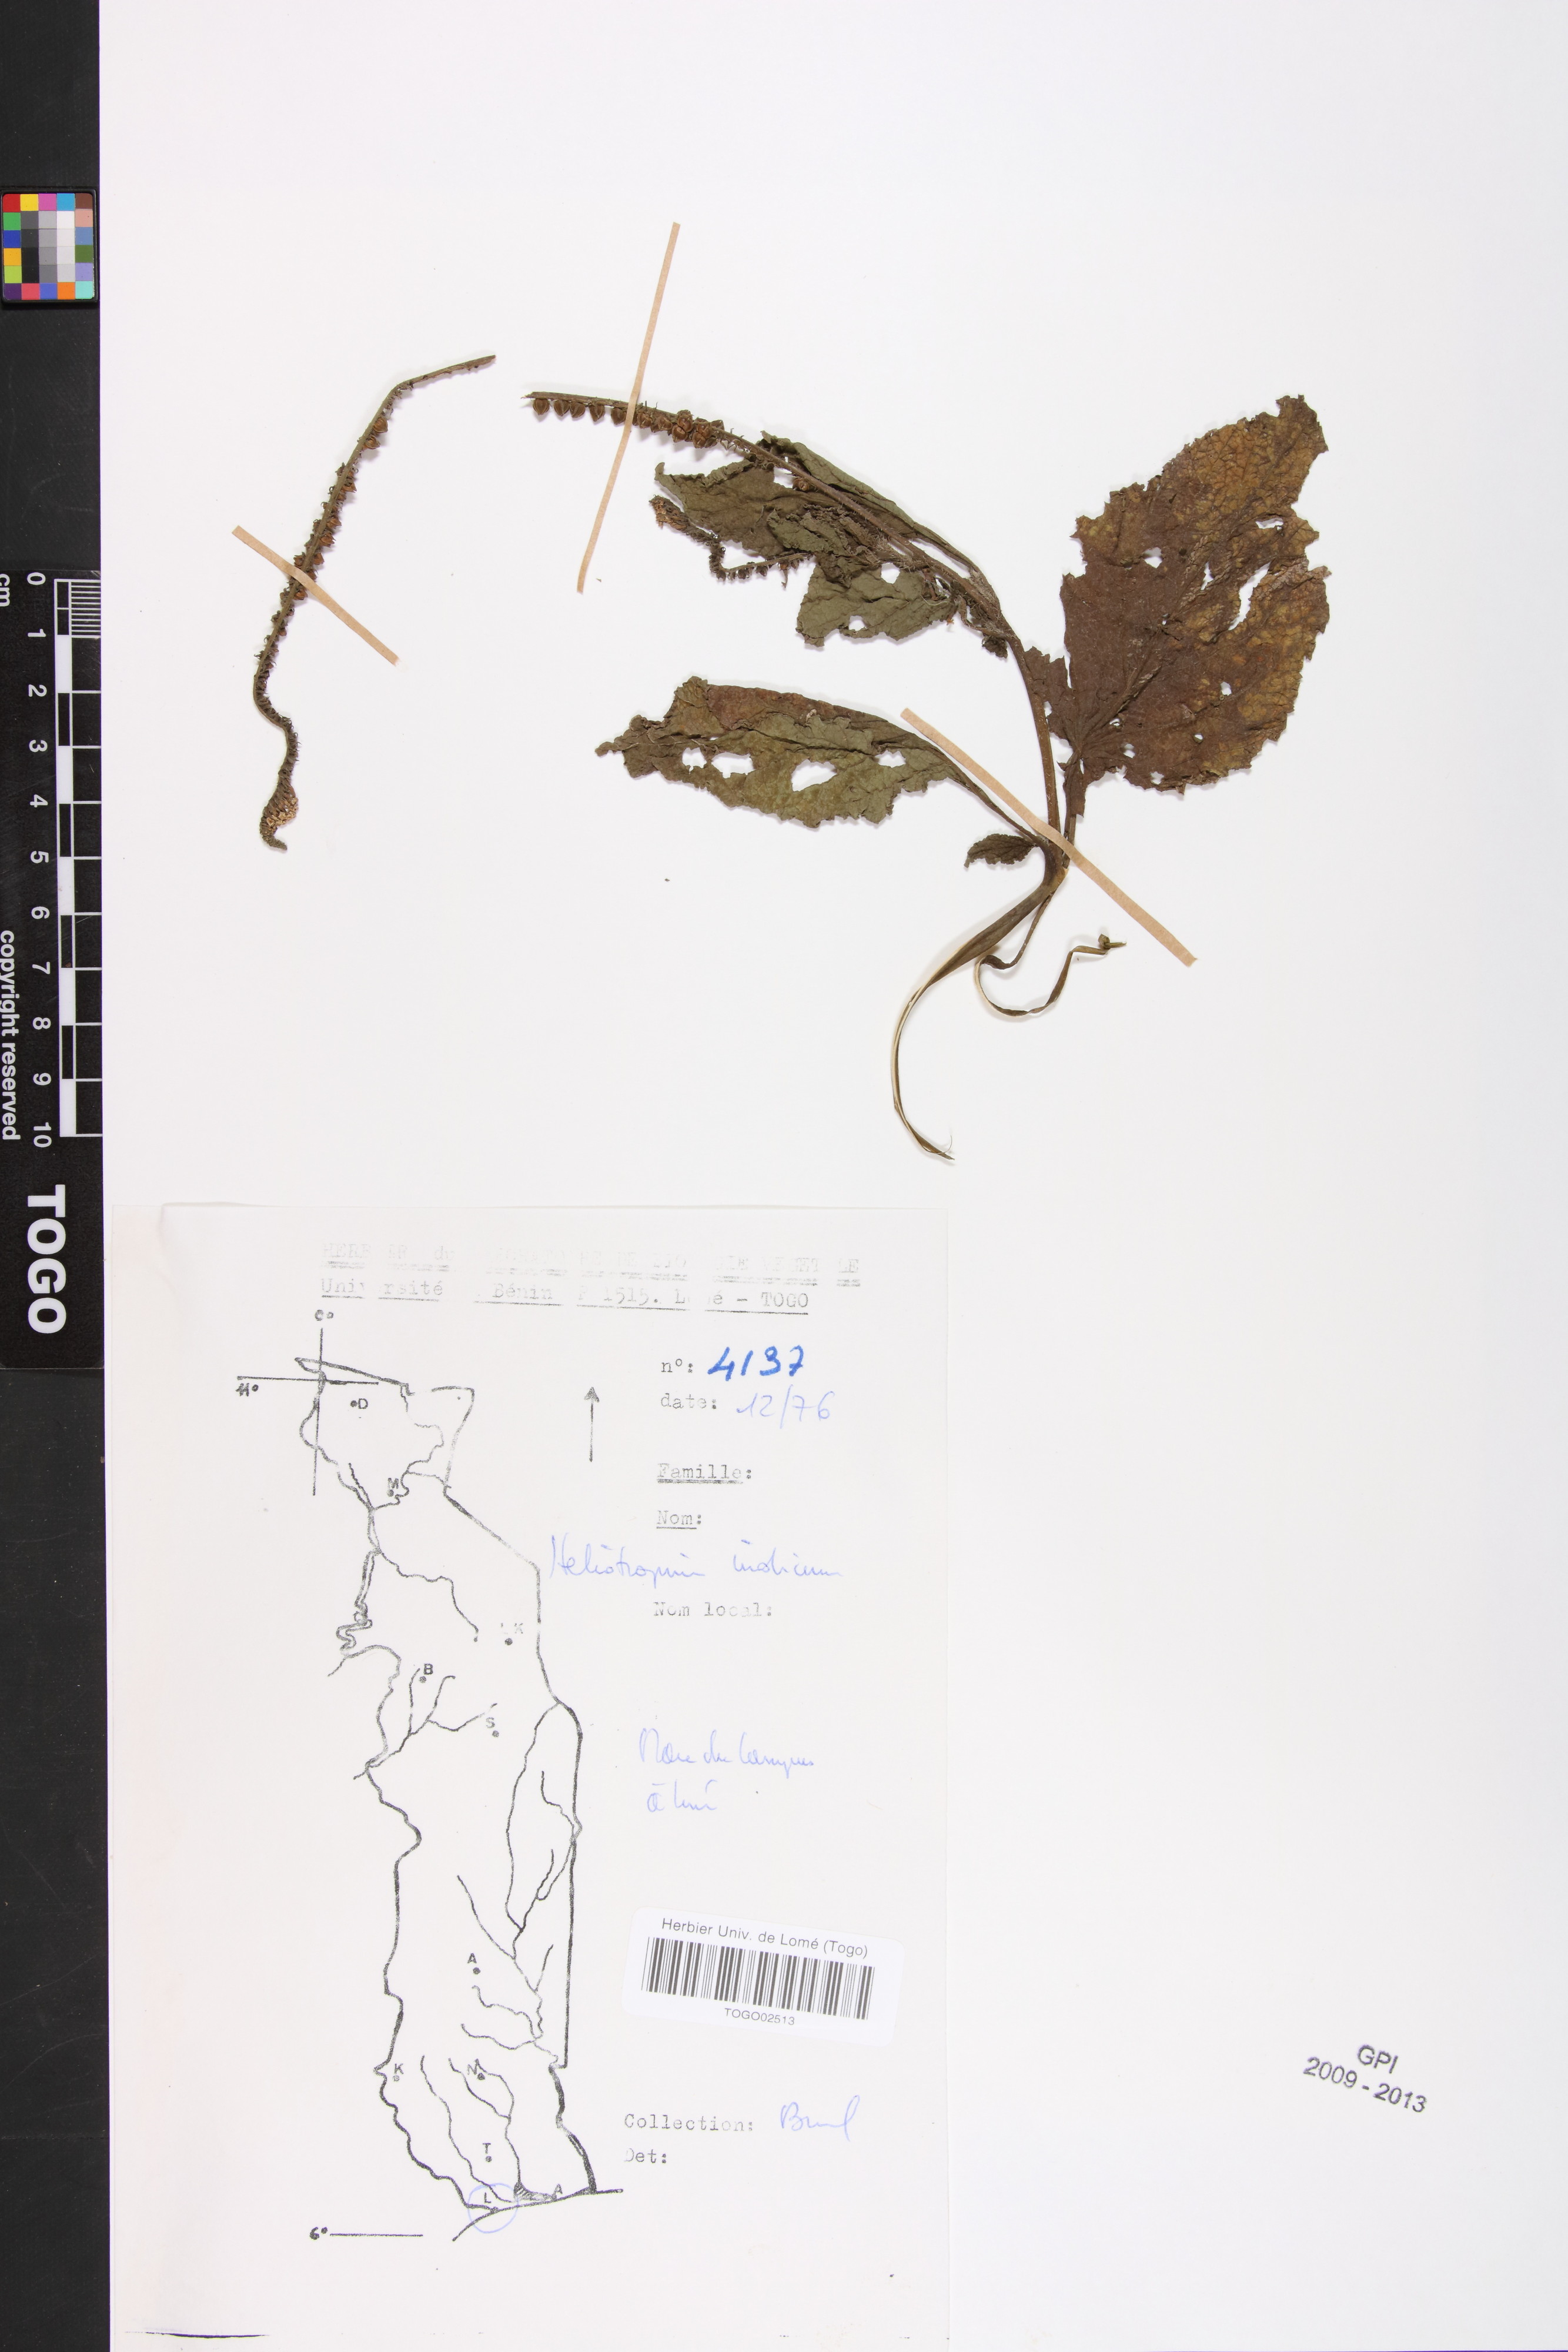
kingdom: Plantae
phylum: Tracheophyta
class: Magnoliopsida
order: Boraginales
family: Heliotropiaceae
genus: Heliotropium
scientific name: Heliotropium indicum
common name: Indian heliotrope
